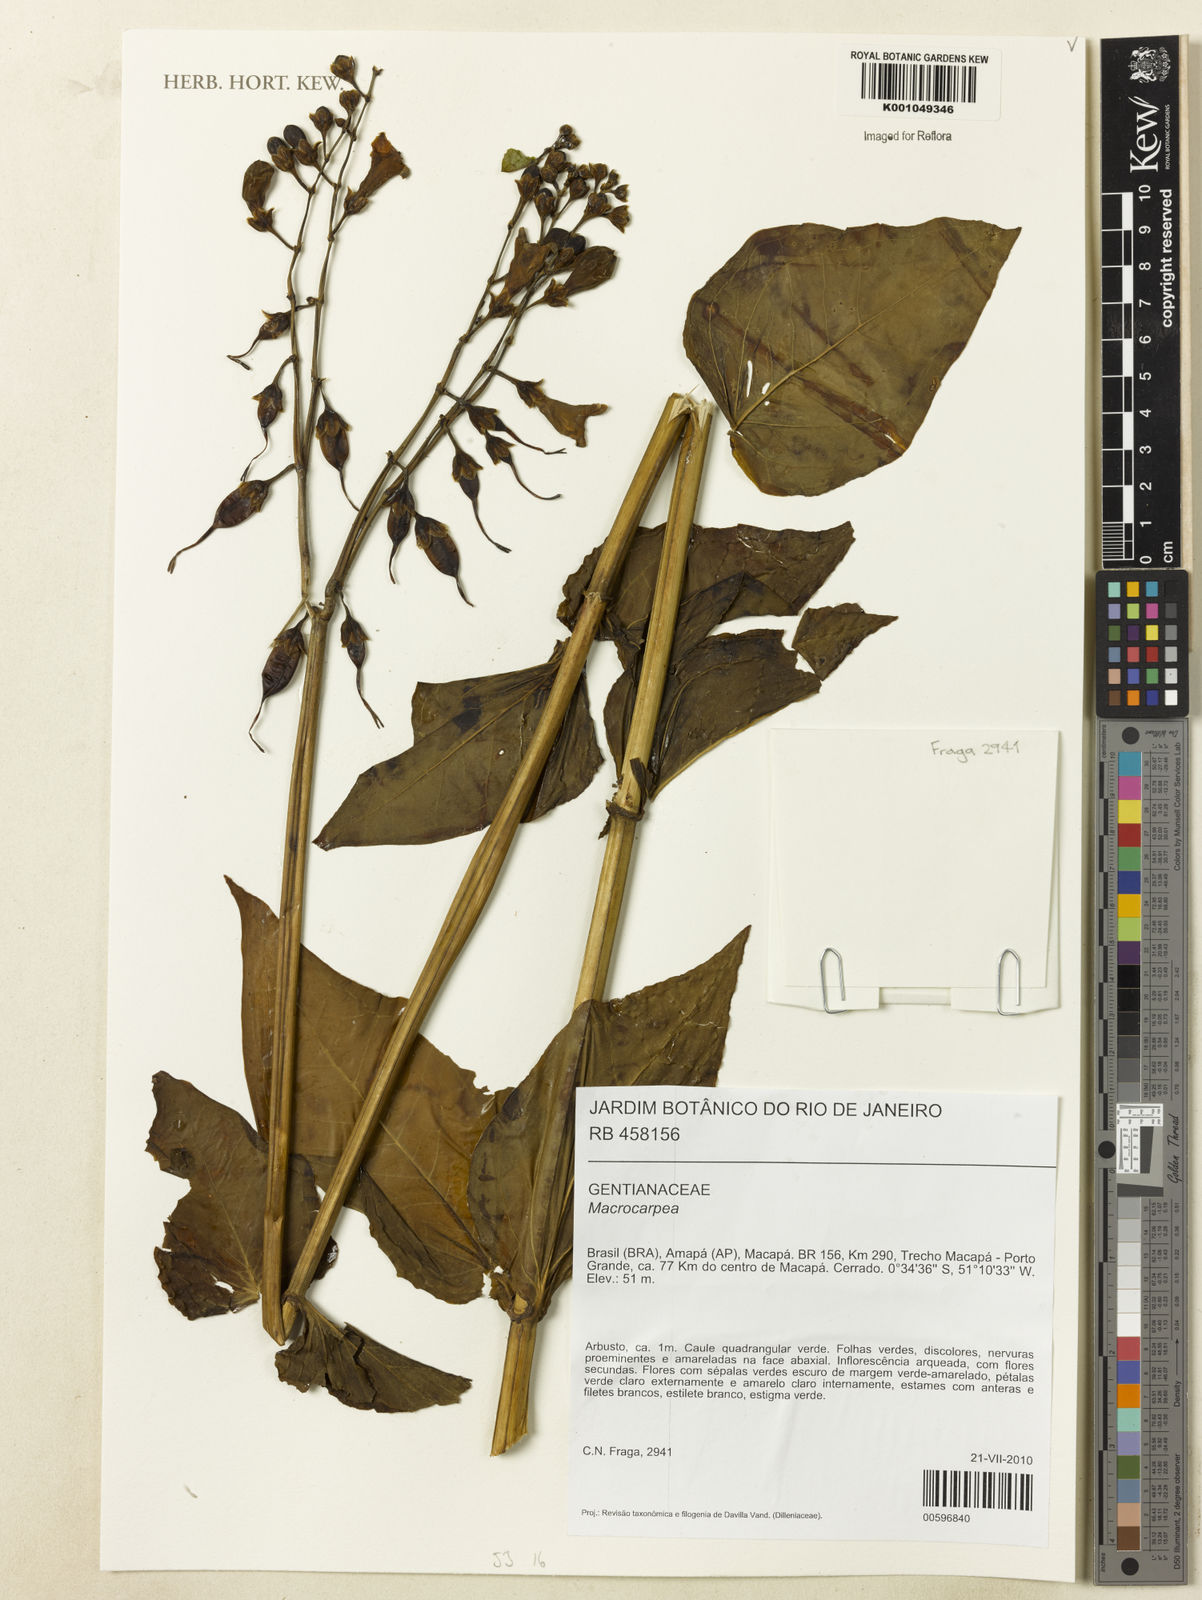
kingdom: Plantae
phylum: Tracheophyta
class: Magnoliopsida
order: Gentianales
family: Gentianaceae
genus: Macrocarpaea
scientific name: Macrocarpaea
